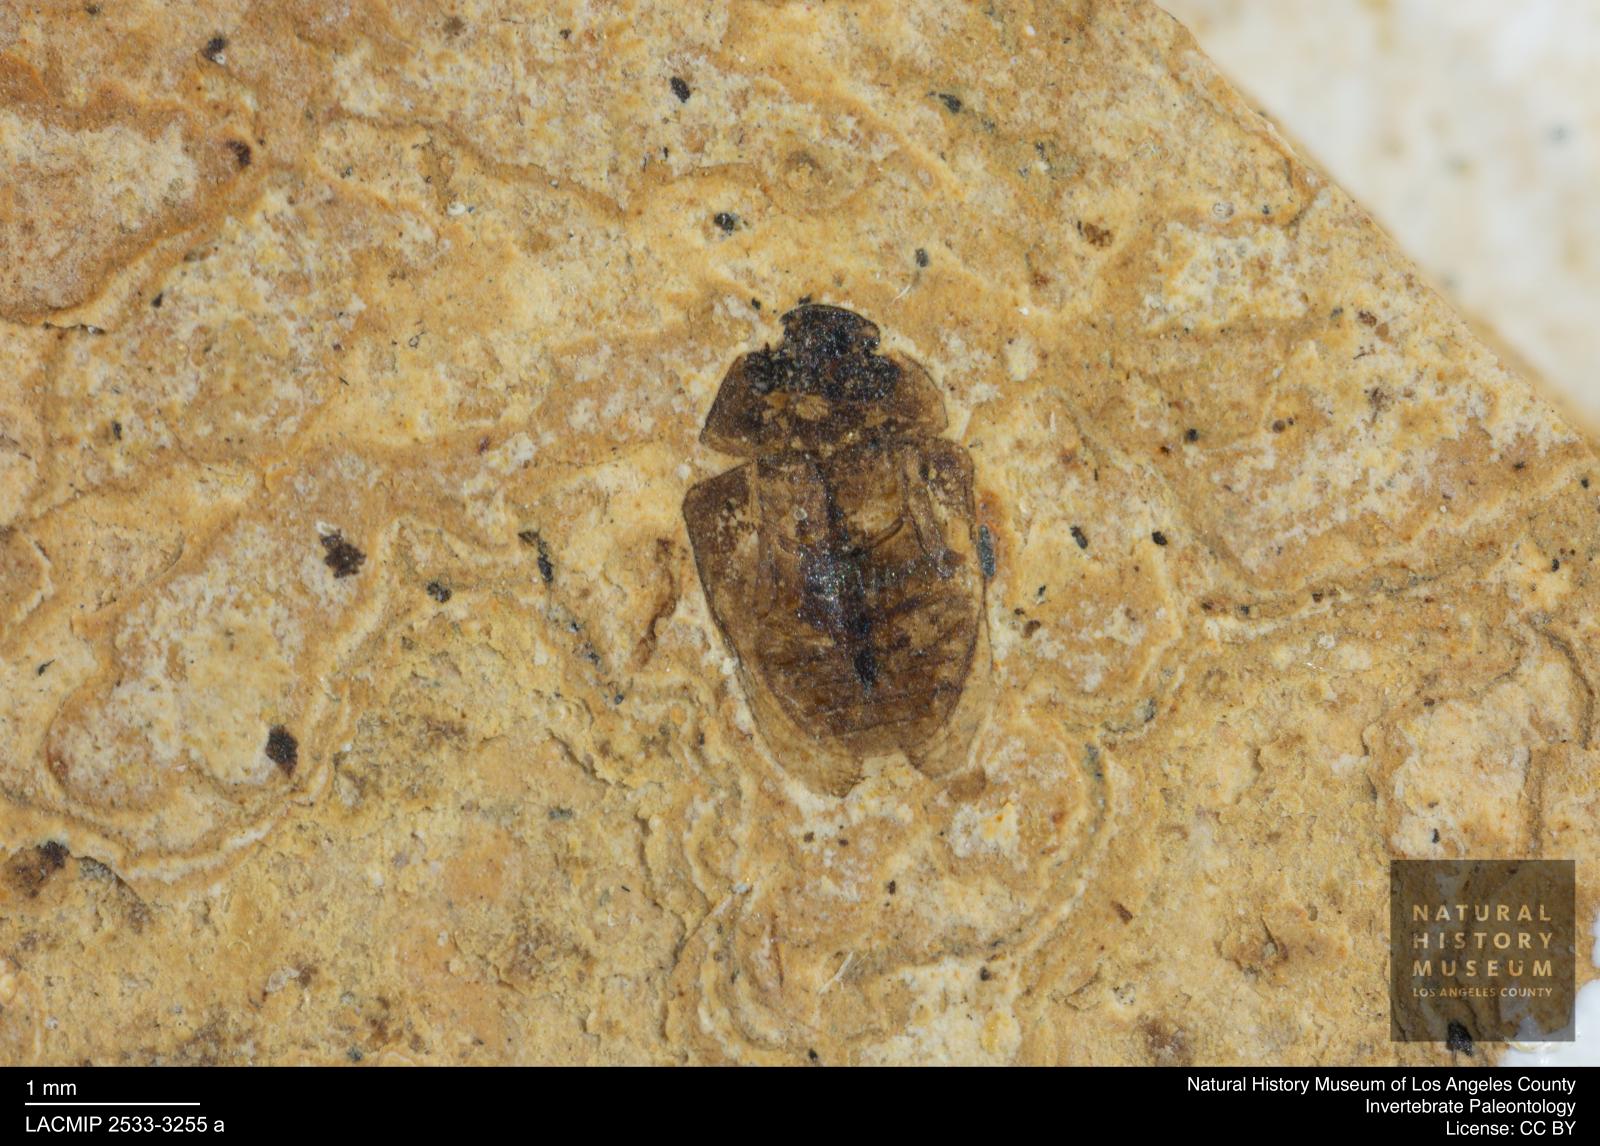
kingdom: Animalia
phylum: Arthropoda
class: Insecta
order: Coleoptera
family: Hydrophilidae
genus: Paracymus
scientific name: Paracymus excitatus
